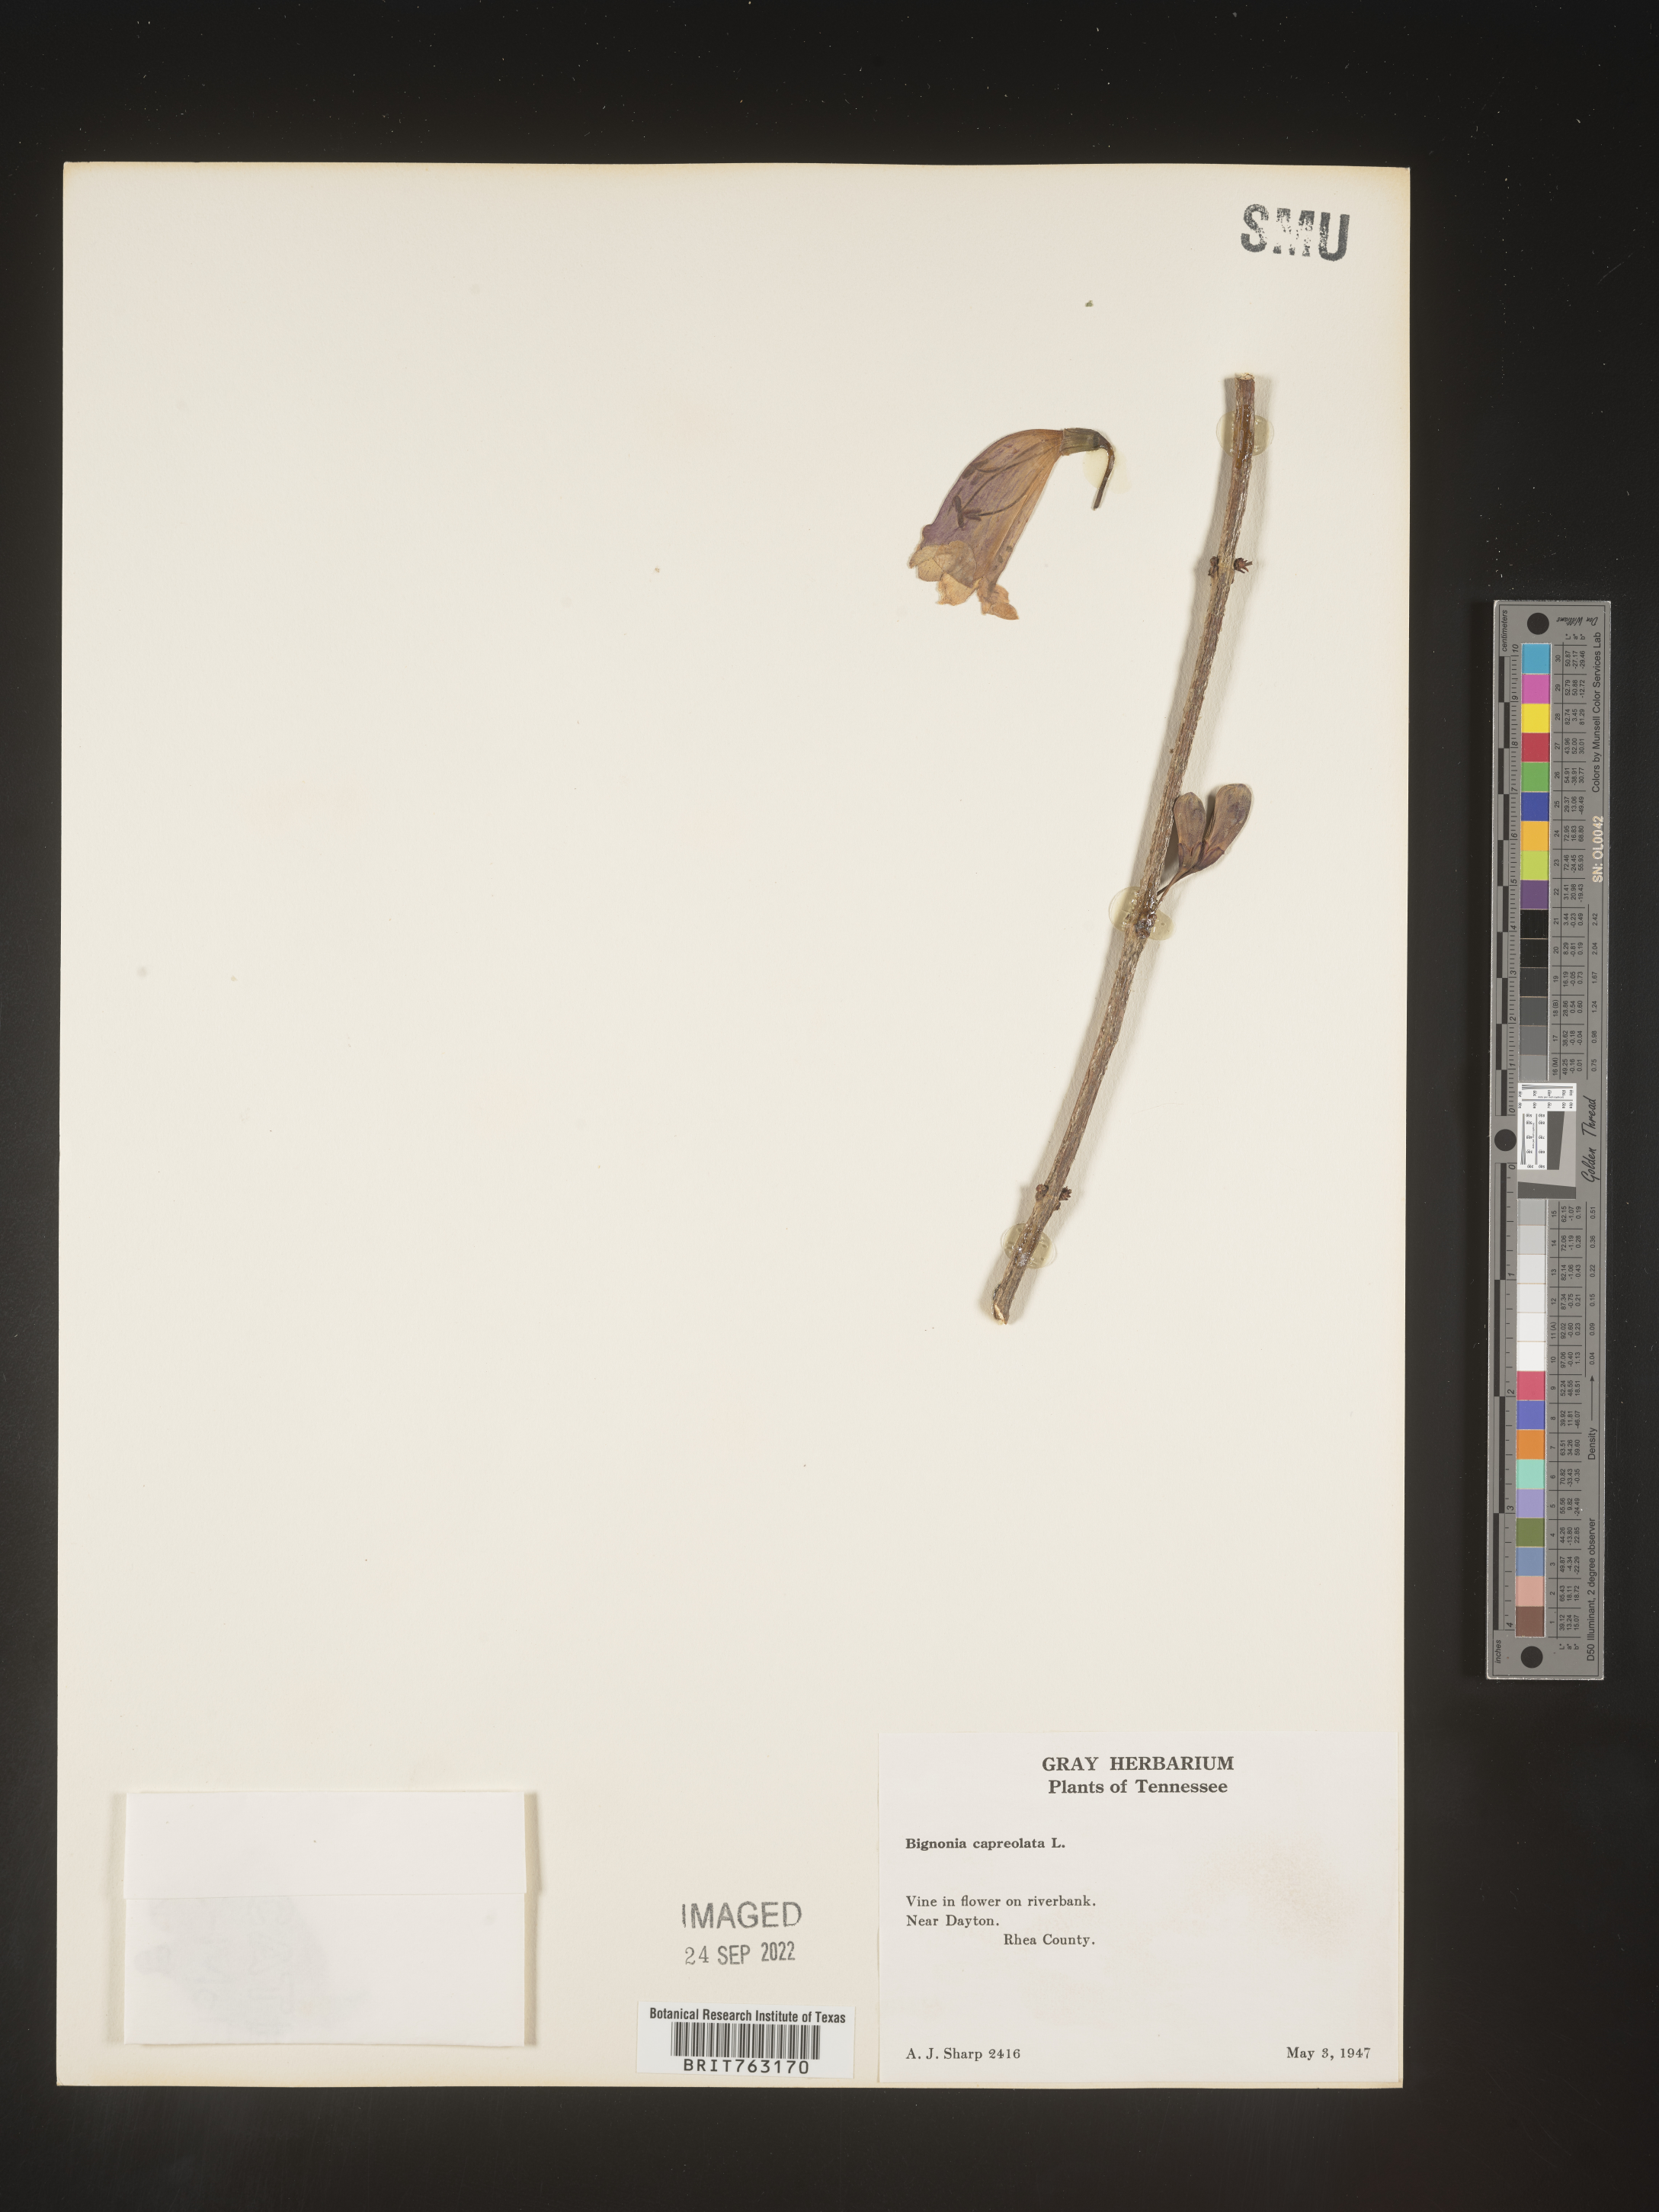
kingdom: Plantae
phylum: Tracheophyta
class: Magnoliopsida
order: Lamiales
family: Bignoniaceae
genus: Bignonia
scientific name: Bignonia capreolata
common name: Crossvine
